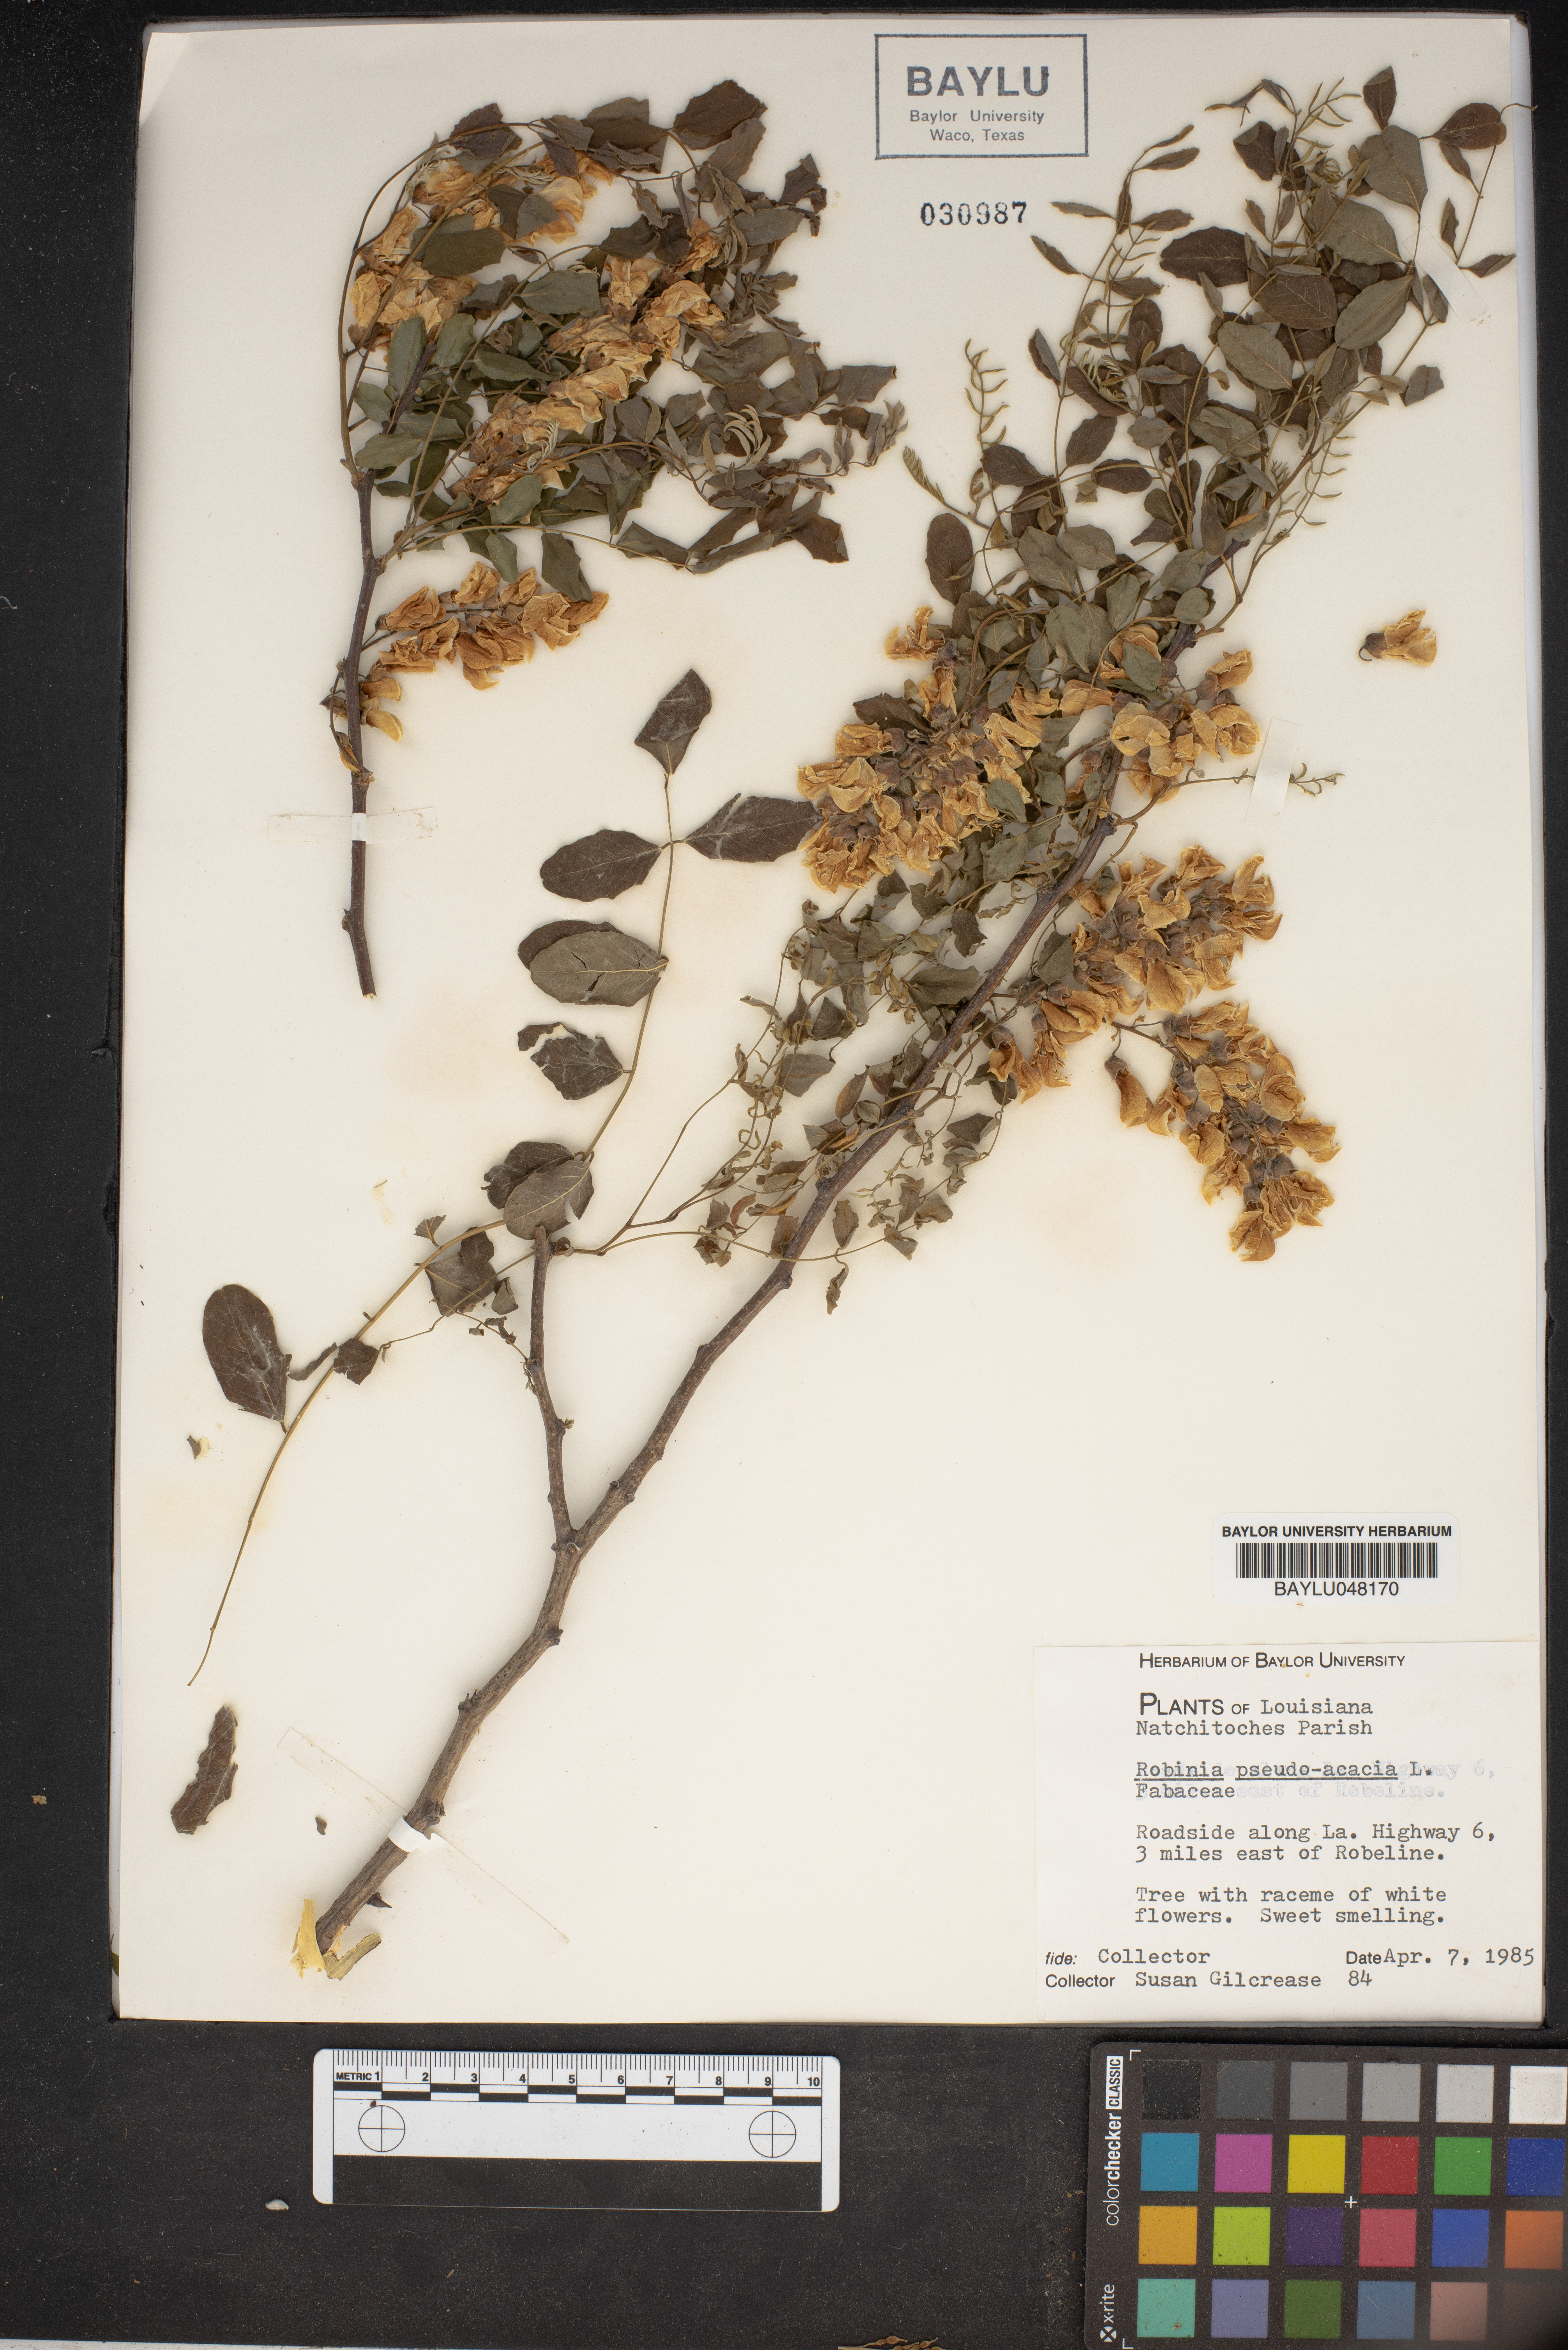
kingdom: Plantae
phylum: Tracheophyta
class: Magnoliopsida
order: Fabales
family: Fabaceae
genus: Robinia
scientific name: Robinia pseudoacacia
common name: Black locust
